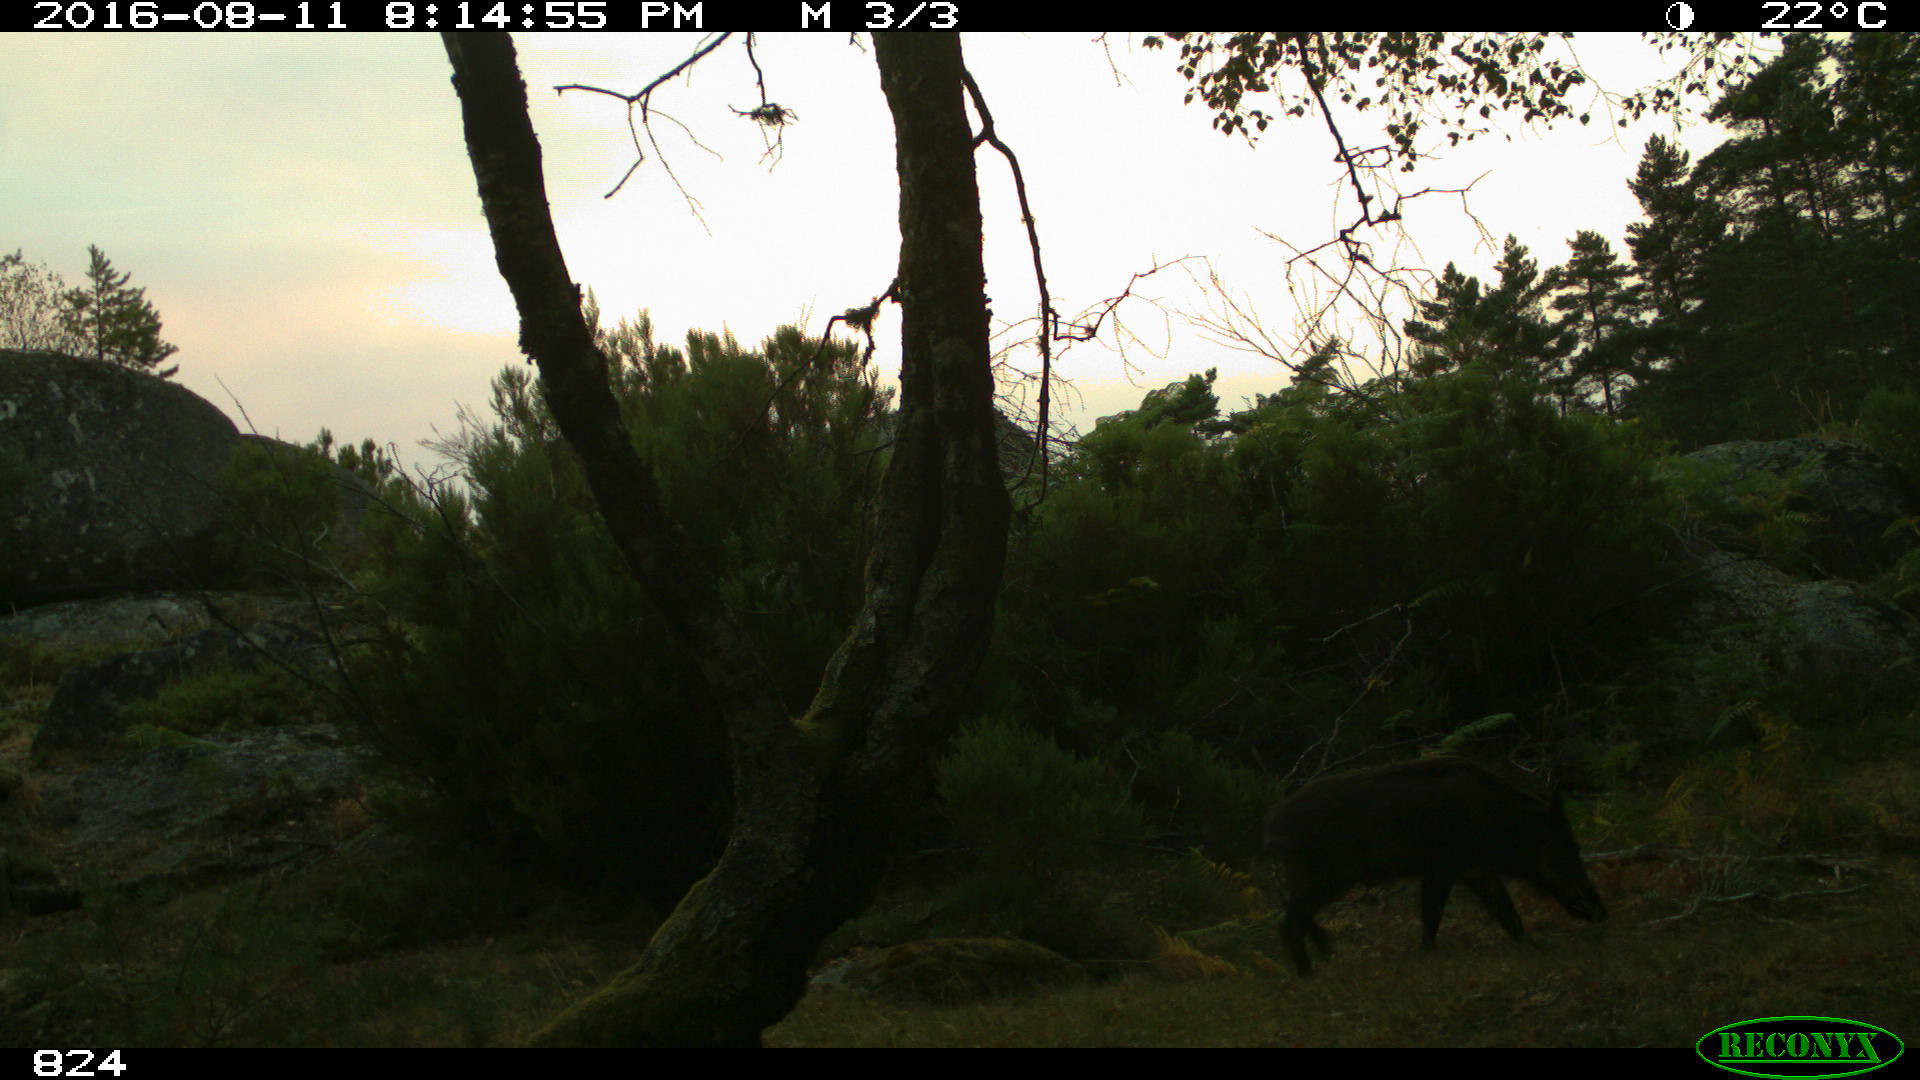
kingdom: Animalia
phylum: Chordata
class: Mammalia
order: Artiodactyla
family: Suidae
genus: Sus
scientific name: Sus scrofa
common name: Wild boar
